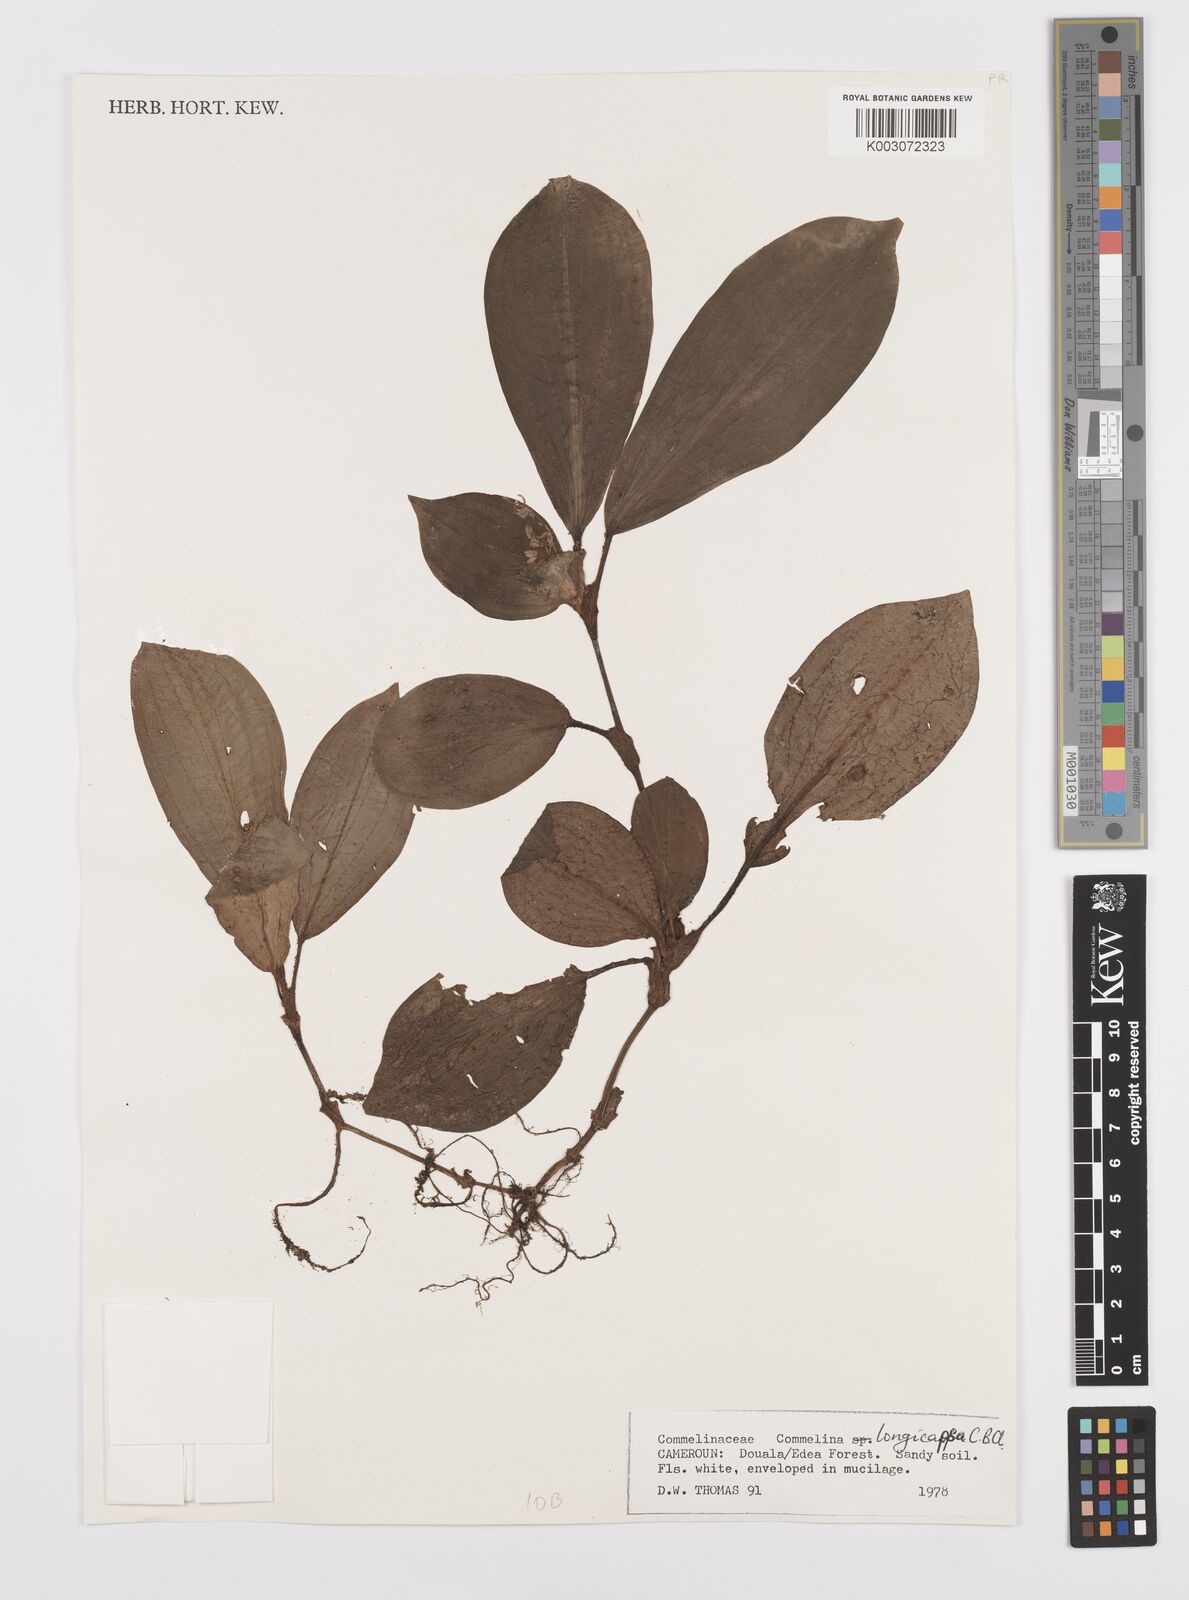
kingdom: Plantae
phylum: Tracheophyta
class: Liliopsida
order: Commelinales
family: Commelinaceae
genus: Commelina
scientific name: Commelina longicapsa
